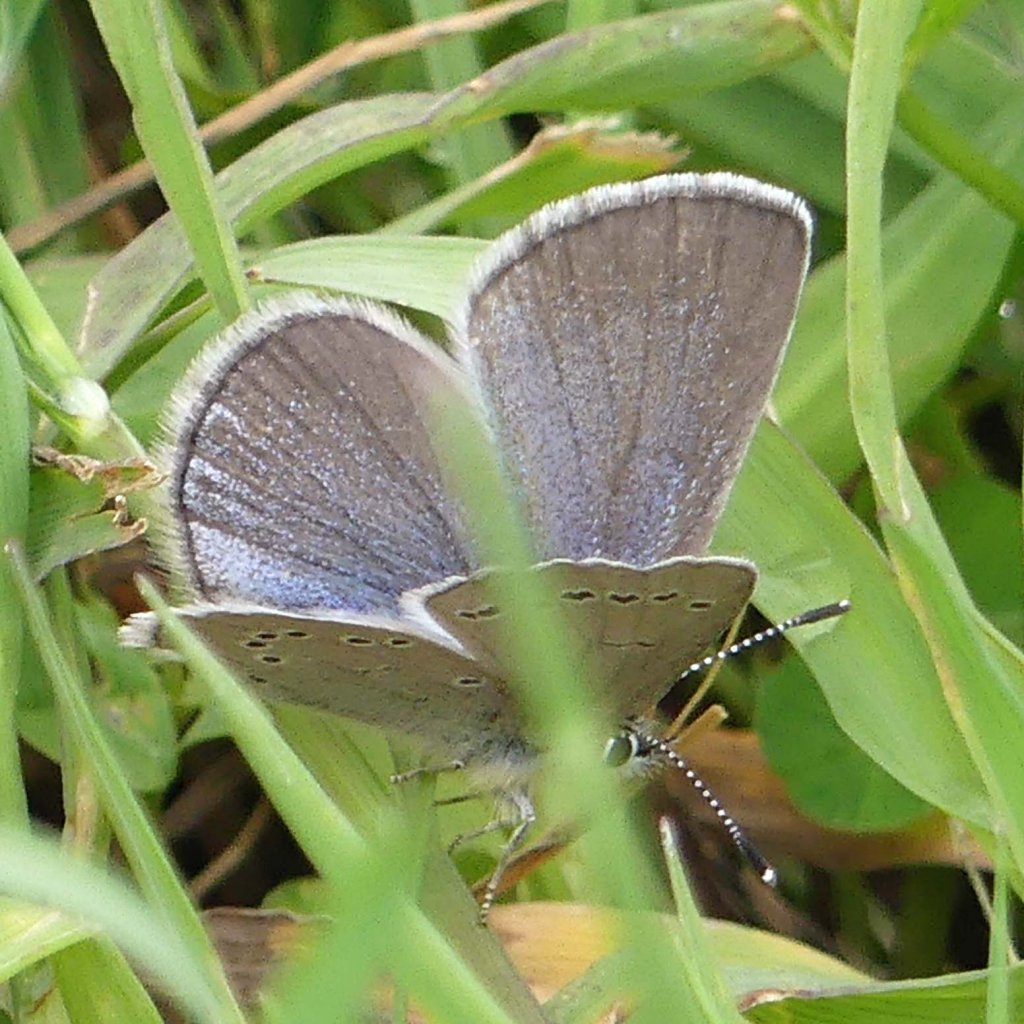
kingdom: Animalia
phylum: Arthropoda
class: Insecta
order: Lepidoptera
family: Lycaenidae
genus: Glaucopsyche
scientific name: Glaucopsyche lygdamus
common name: Silvery Blue
